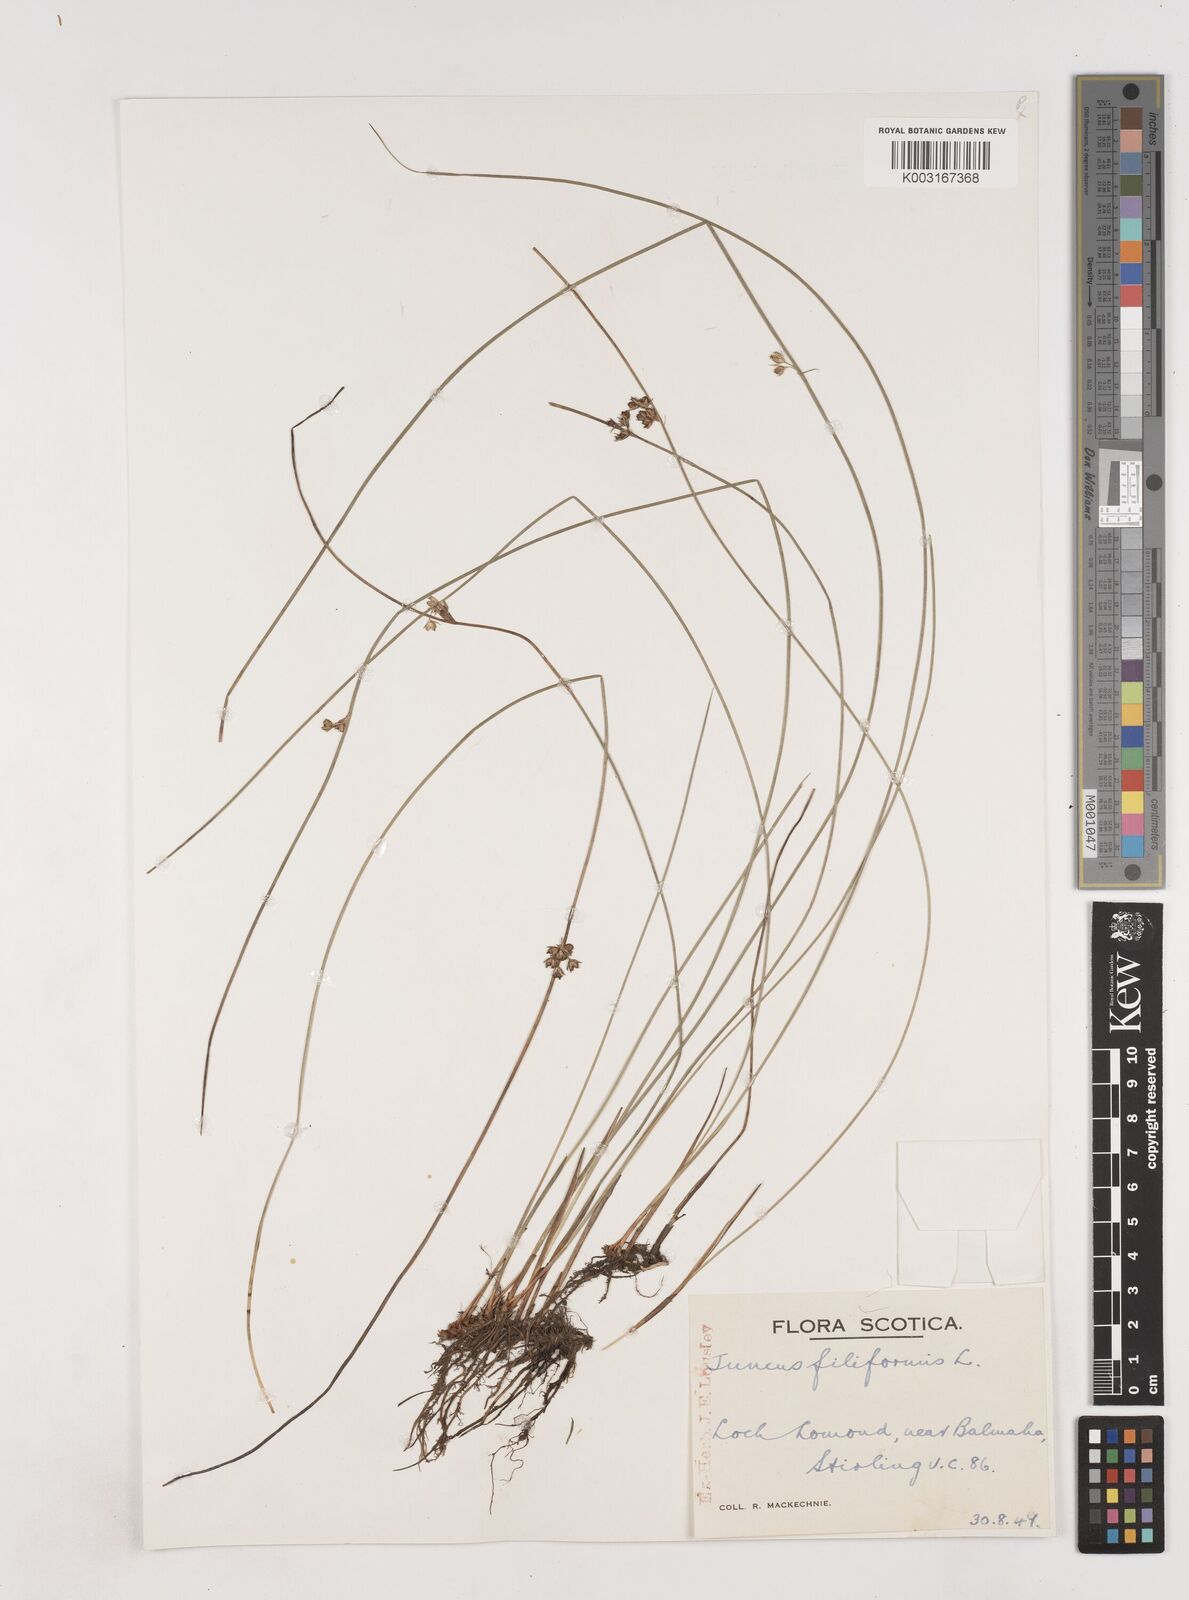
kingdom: Plantae
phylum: Tracheophyta
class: Liliopsida
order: Poales
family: Juncaceae
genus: Juncus
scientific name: Juncus filiformis
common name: Thread rush
